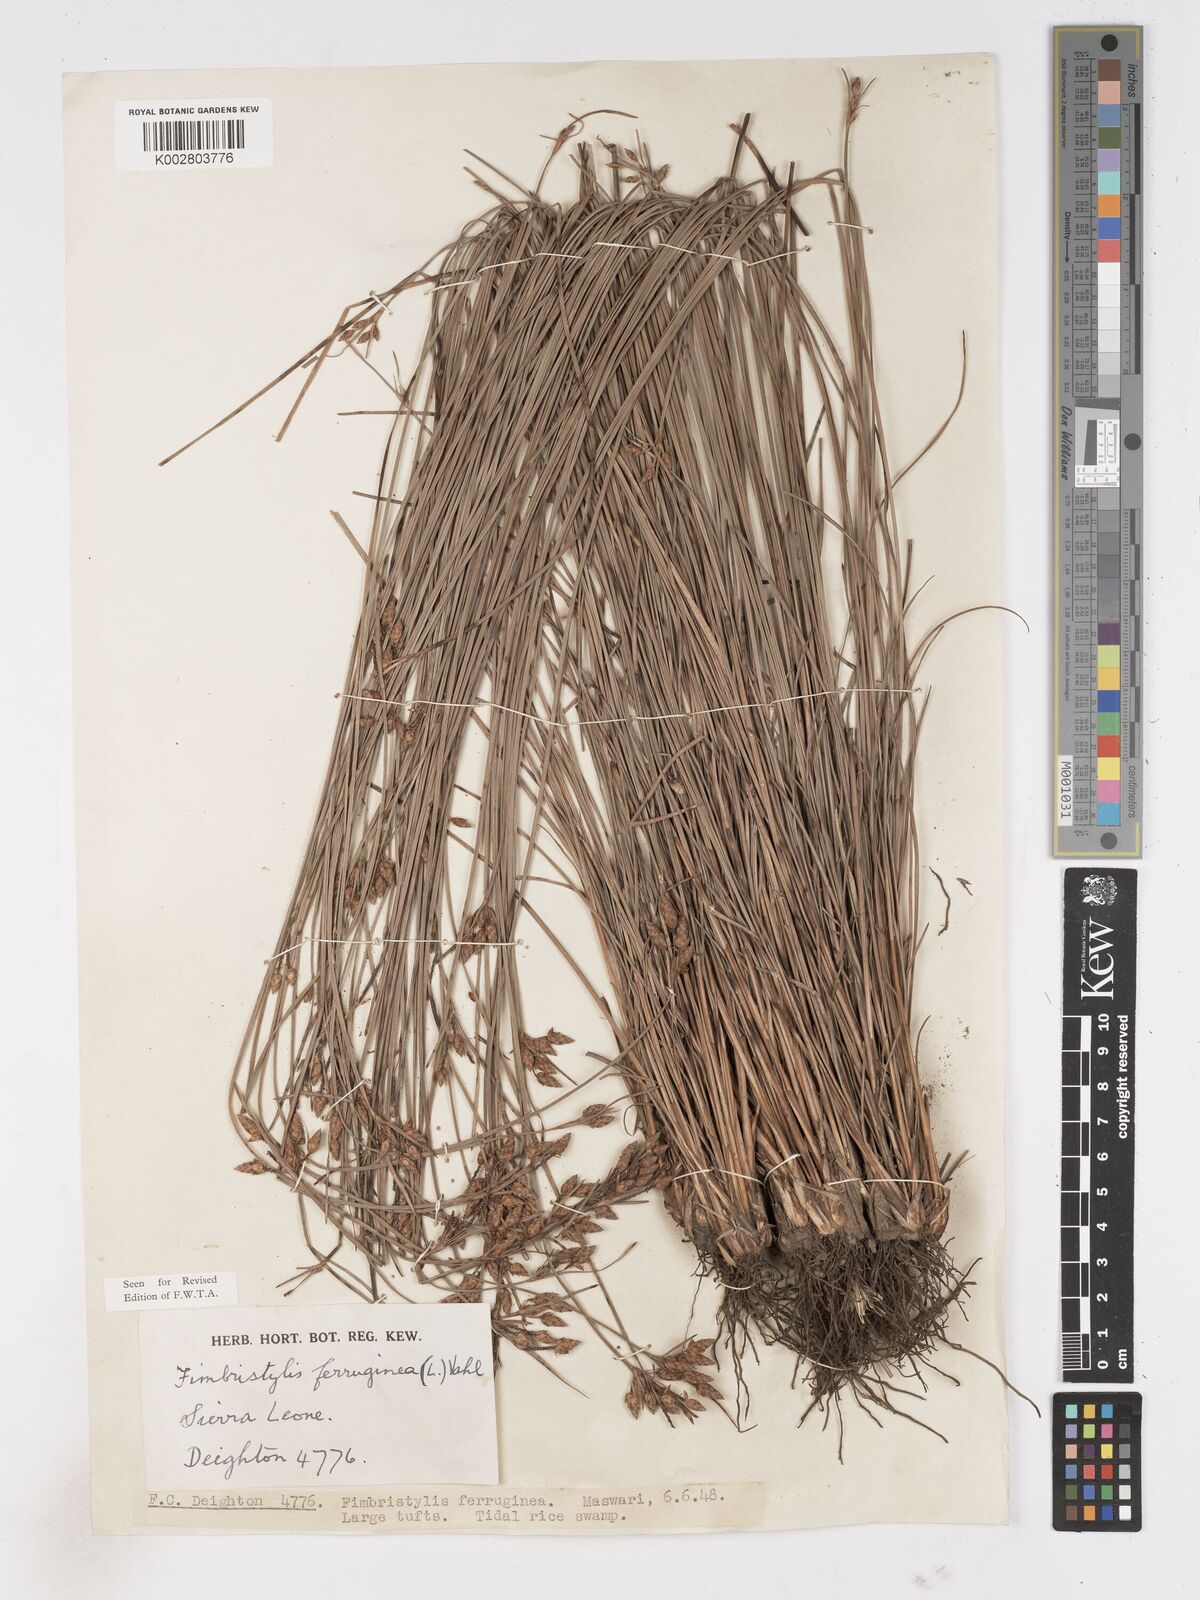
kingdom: Plantae
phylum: Tracheophyta
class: Liliopsida
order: Poales
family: Cyperaceae
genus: Fimbristylis
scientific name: Fimbristylis ferruginea
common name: West indian fimbry
